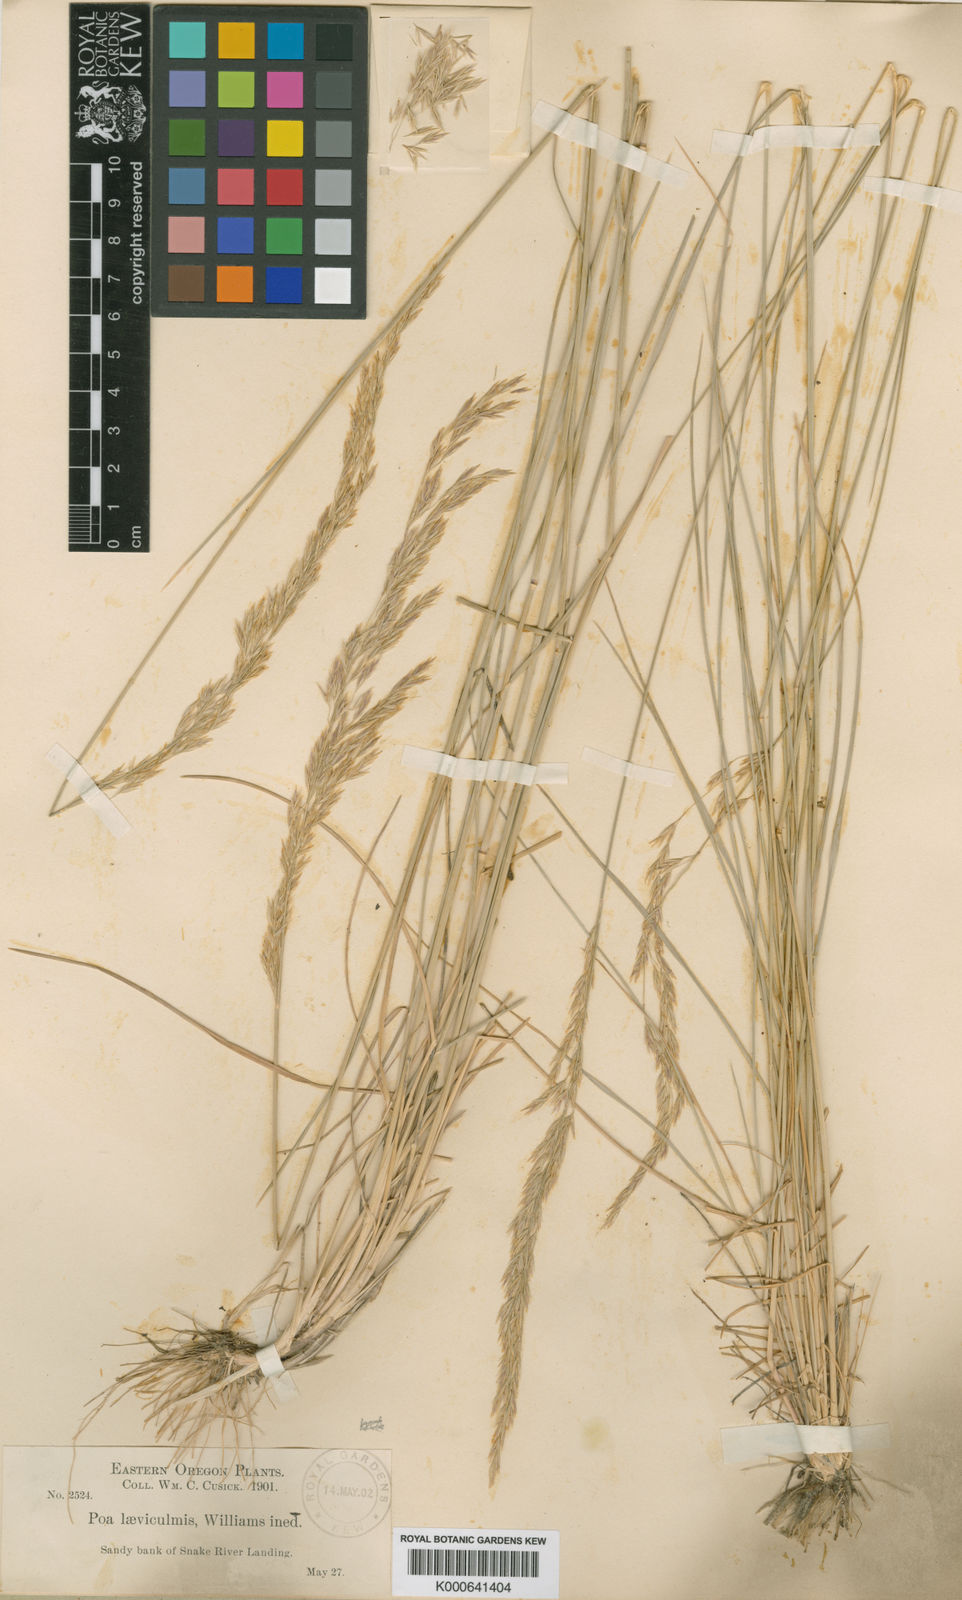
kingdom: Plantae
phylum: Tracheophyta
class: Liliopsida
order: Poales
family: Poaceae
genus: Poa
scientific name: Poa secunda
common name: Sandberg bluegrass
